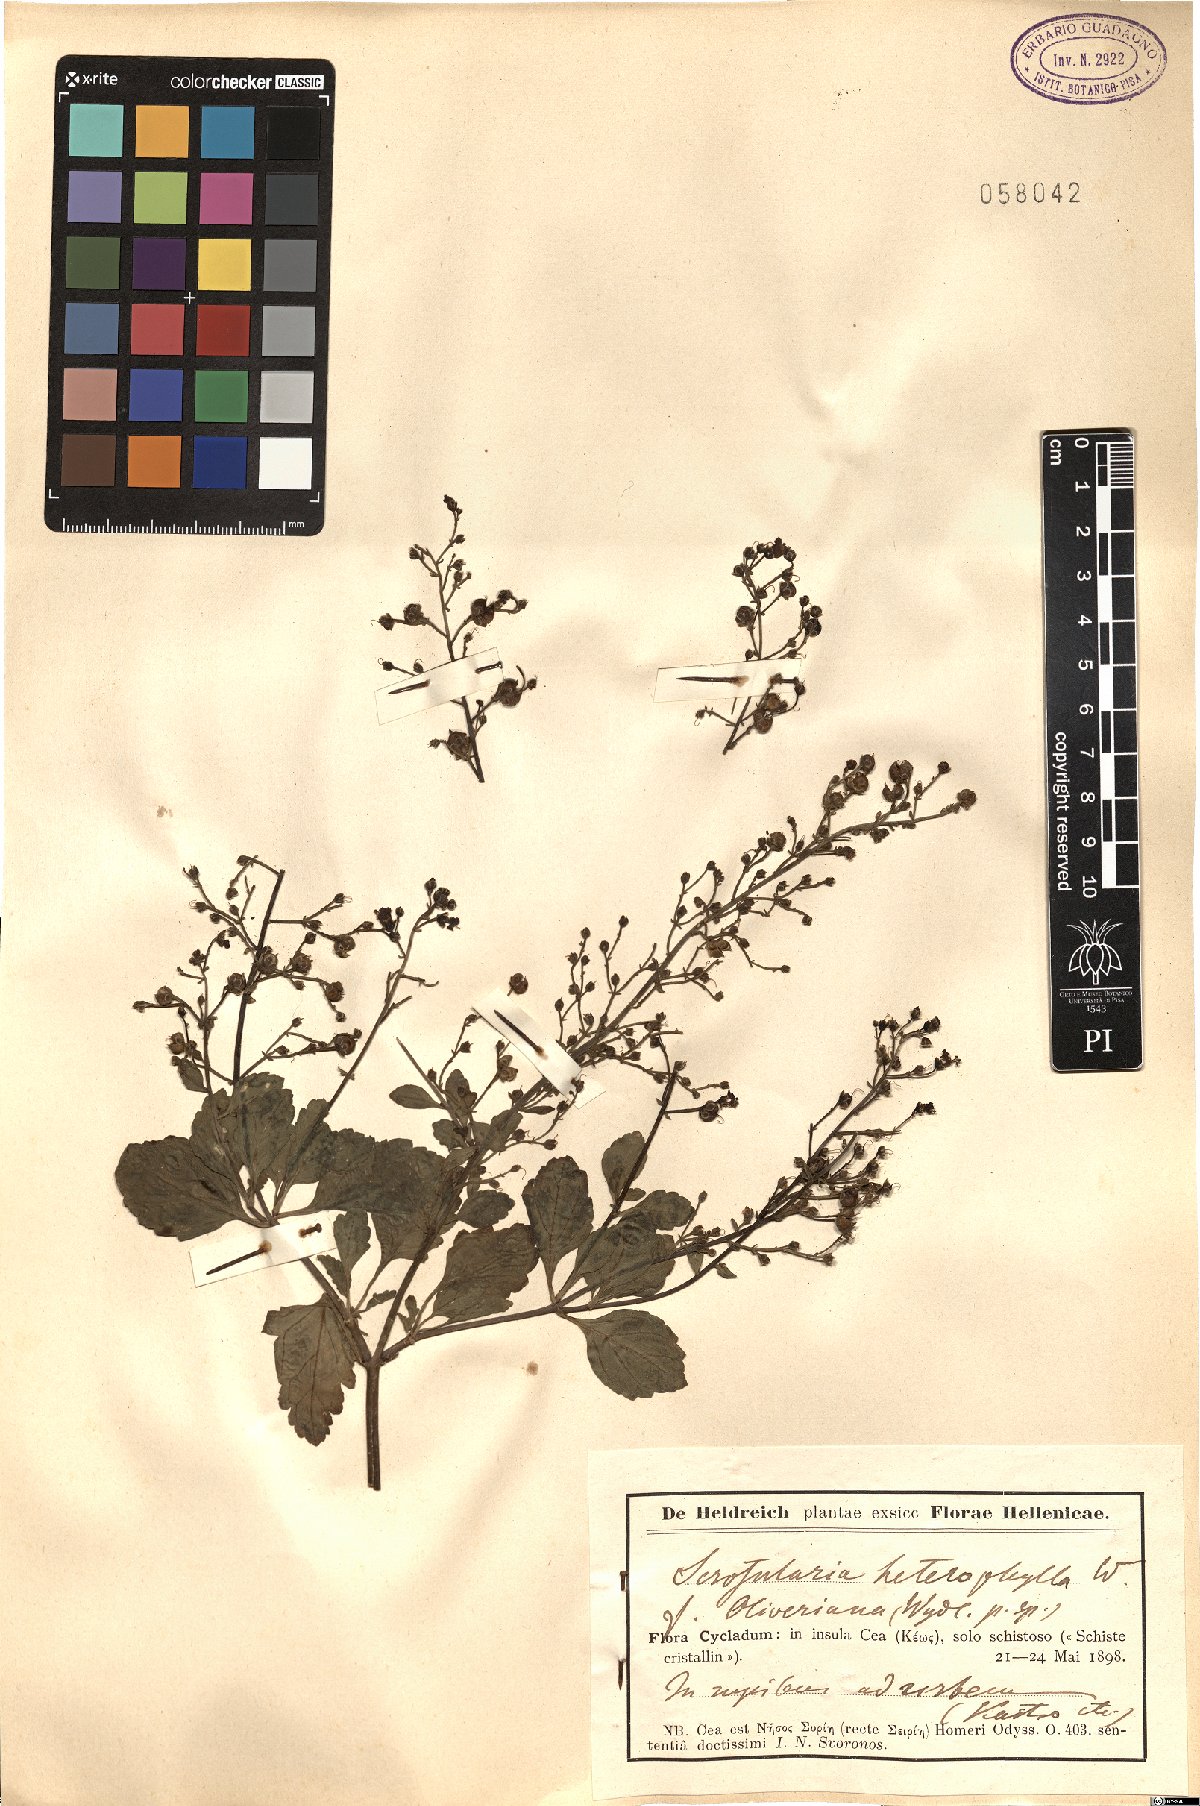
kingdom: Plantae
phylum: Tracheophyta
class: Magnoliopsida
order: Lamiales
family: Scrophulariaceae
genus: Scrophularia
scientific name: Scrophularia heterophylla
